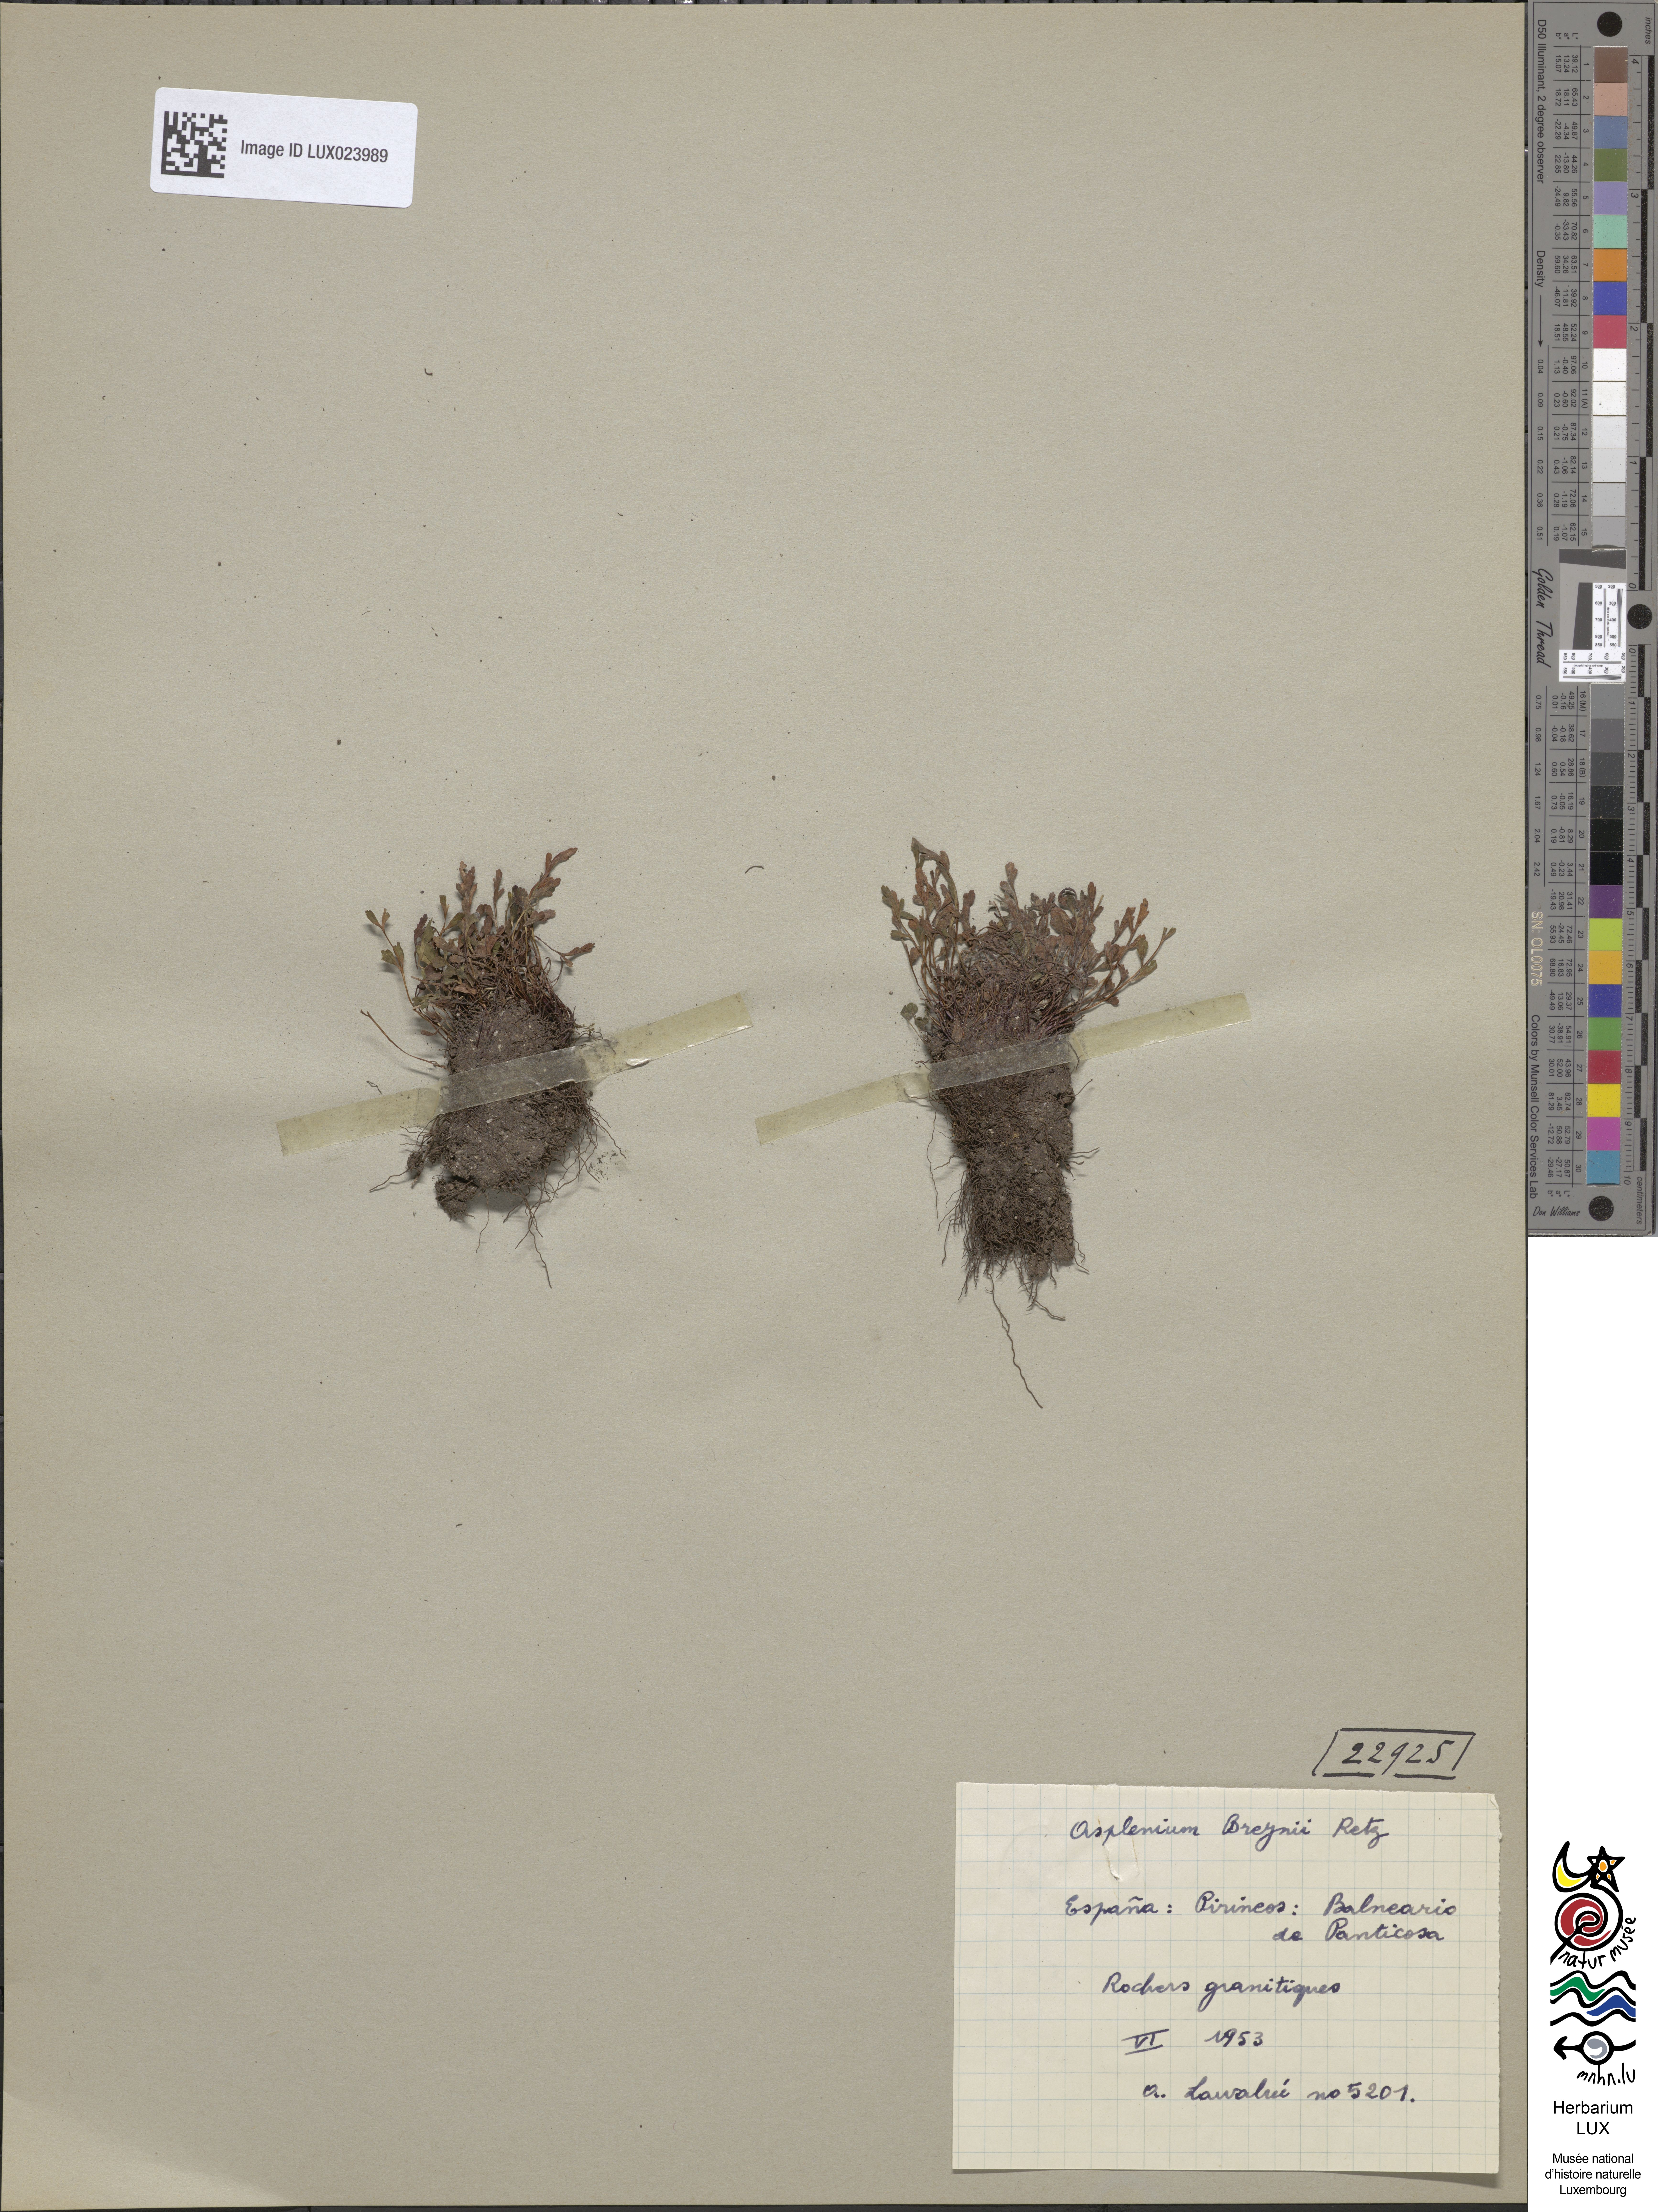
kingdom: Plantae
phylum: Tracheophyta
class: Polypodiopsida
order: Polypodiales
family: Aspleniaceae
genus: Asplenium
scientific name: Asplenium alternifolium
